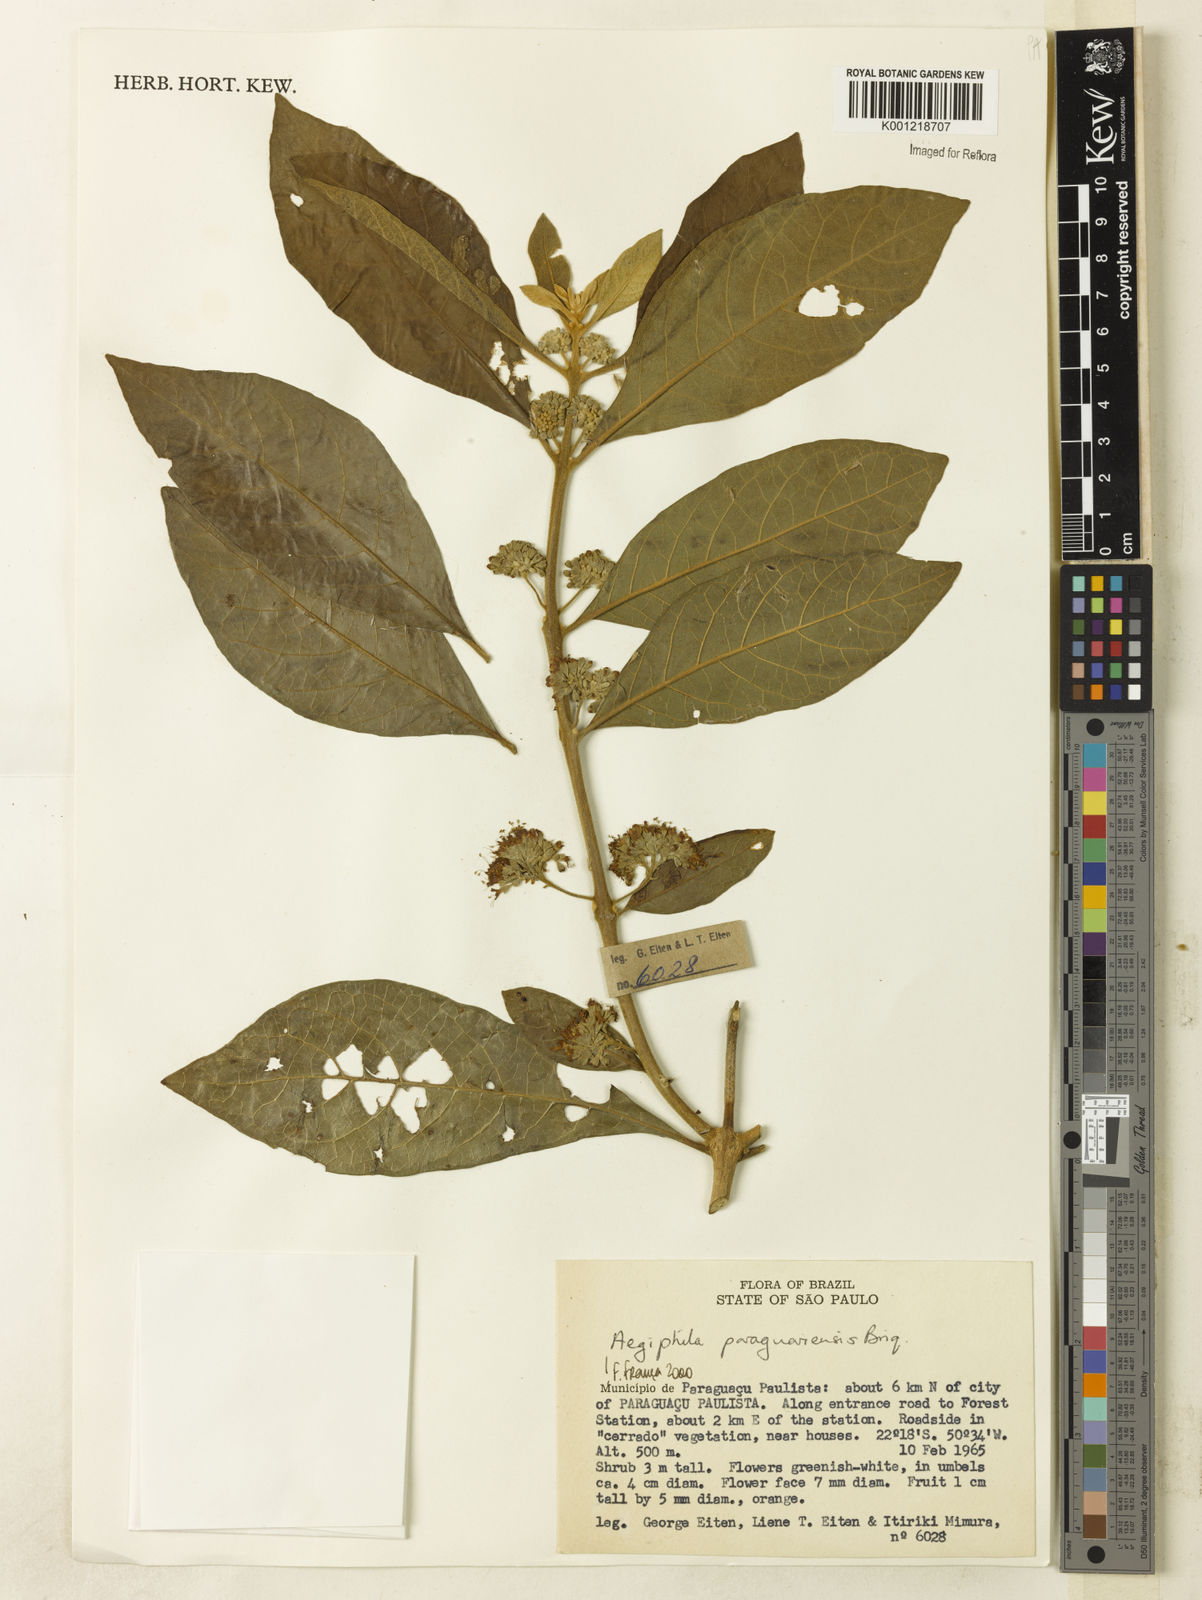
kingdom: Plantae
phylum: Tracheophyta
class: Magnoliopsida
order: Lamiales
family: Lamiaceae
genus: Aegiphila
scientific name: Aegiphila paraguariensis
